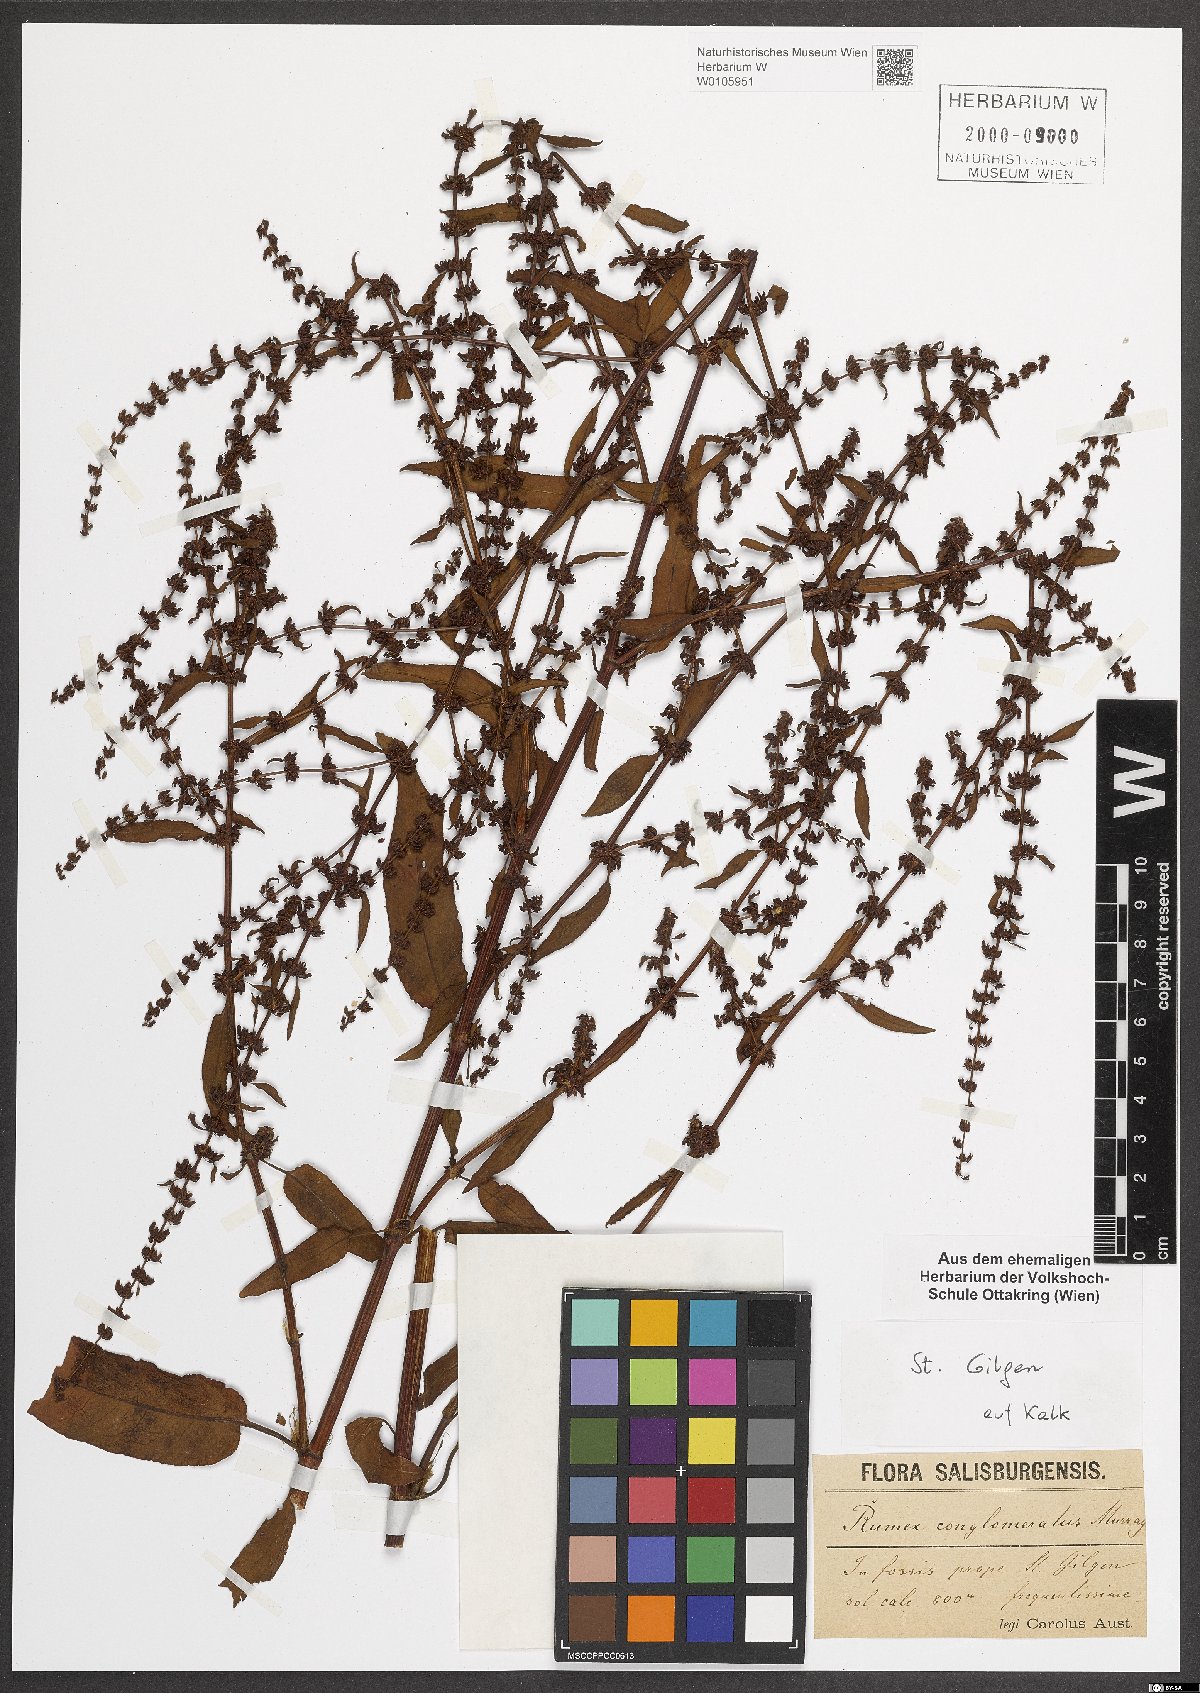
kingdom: Plantae
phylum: Tracheophyta
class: Magnoliopsida
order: Caryophyllales
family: Polygonaceae
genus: Rumex
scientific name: Rumex conglomeratus
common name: Clustered dock
